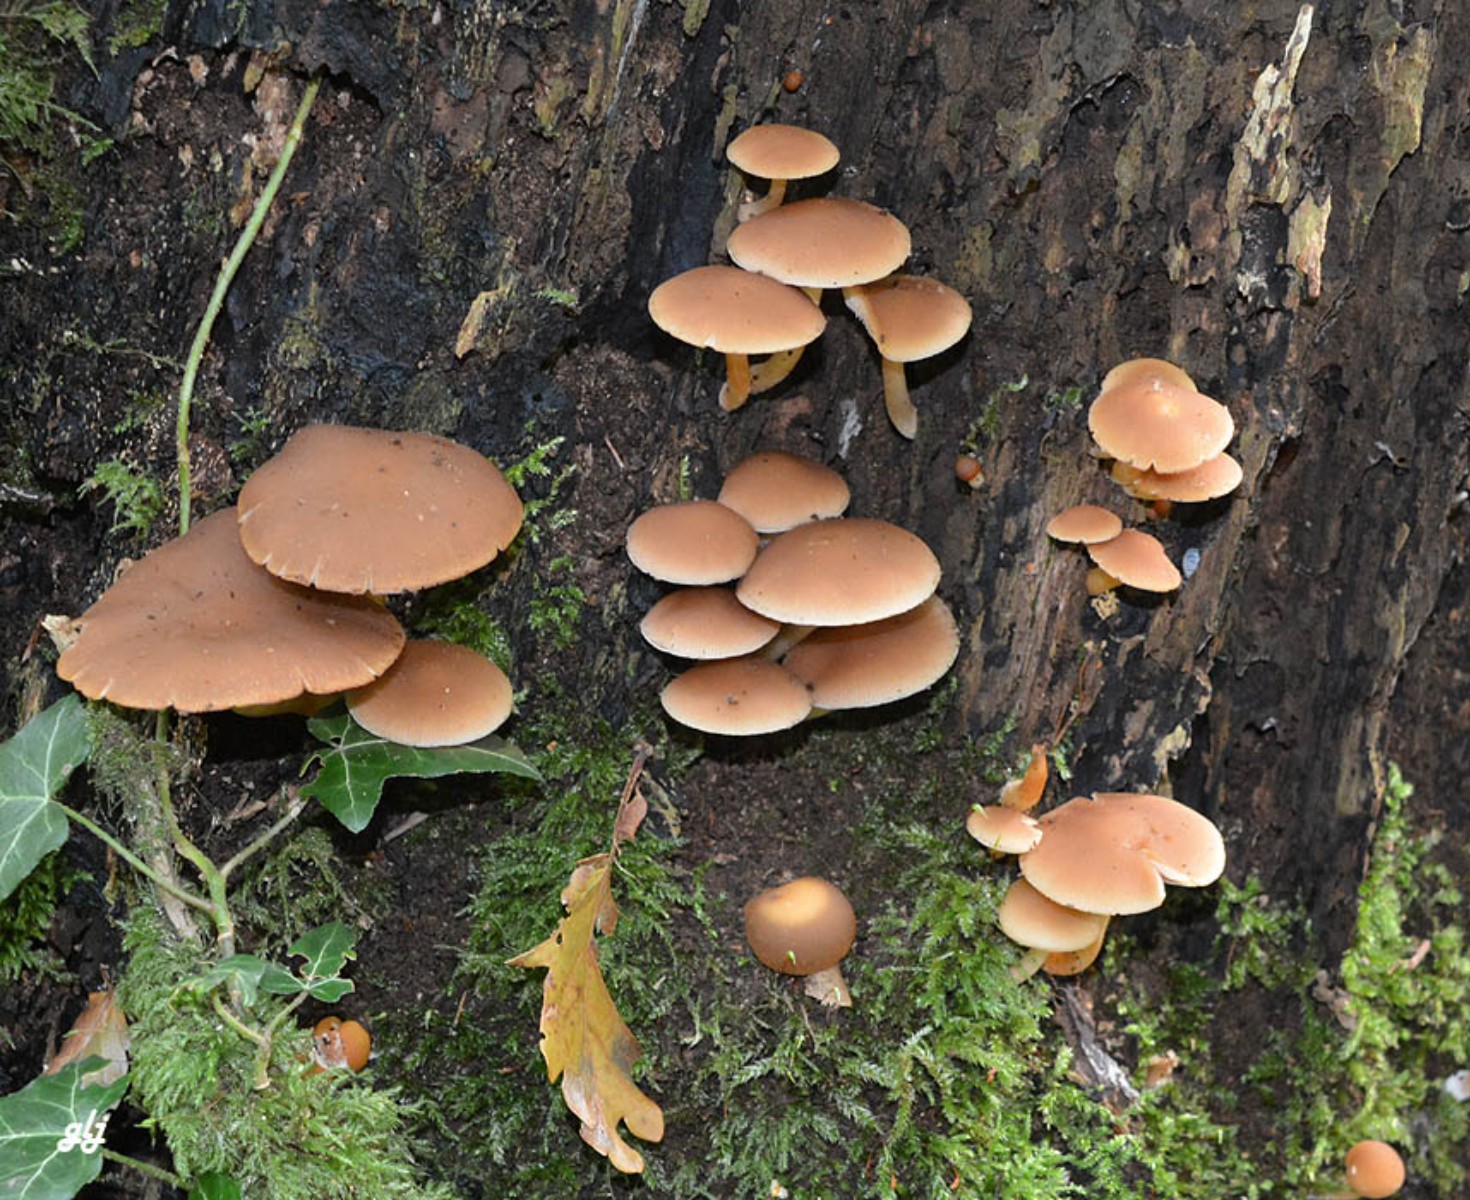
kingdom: Fungi
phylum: Basidiomycota
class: Agaricomycetes
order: Agaricales
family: Psathyrellaceae
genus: Psathyrella
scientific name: Psathyrella piluliformis
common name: lysstokket mørkhat
